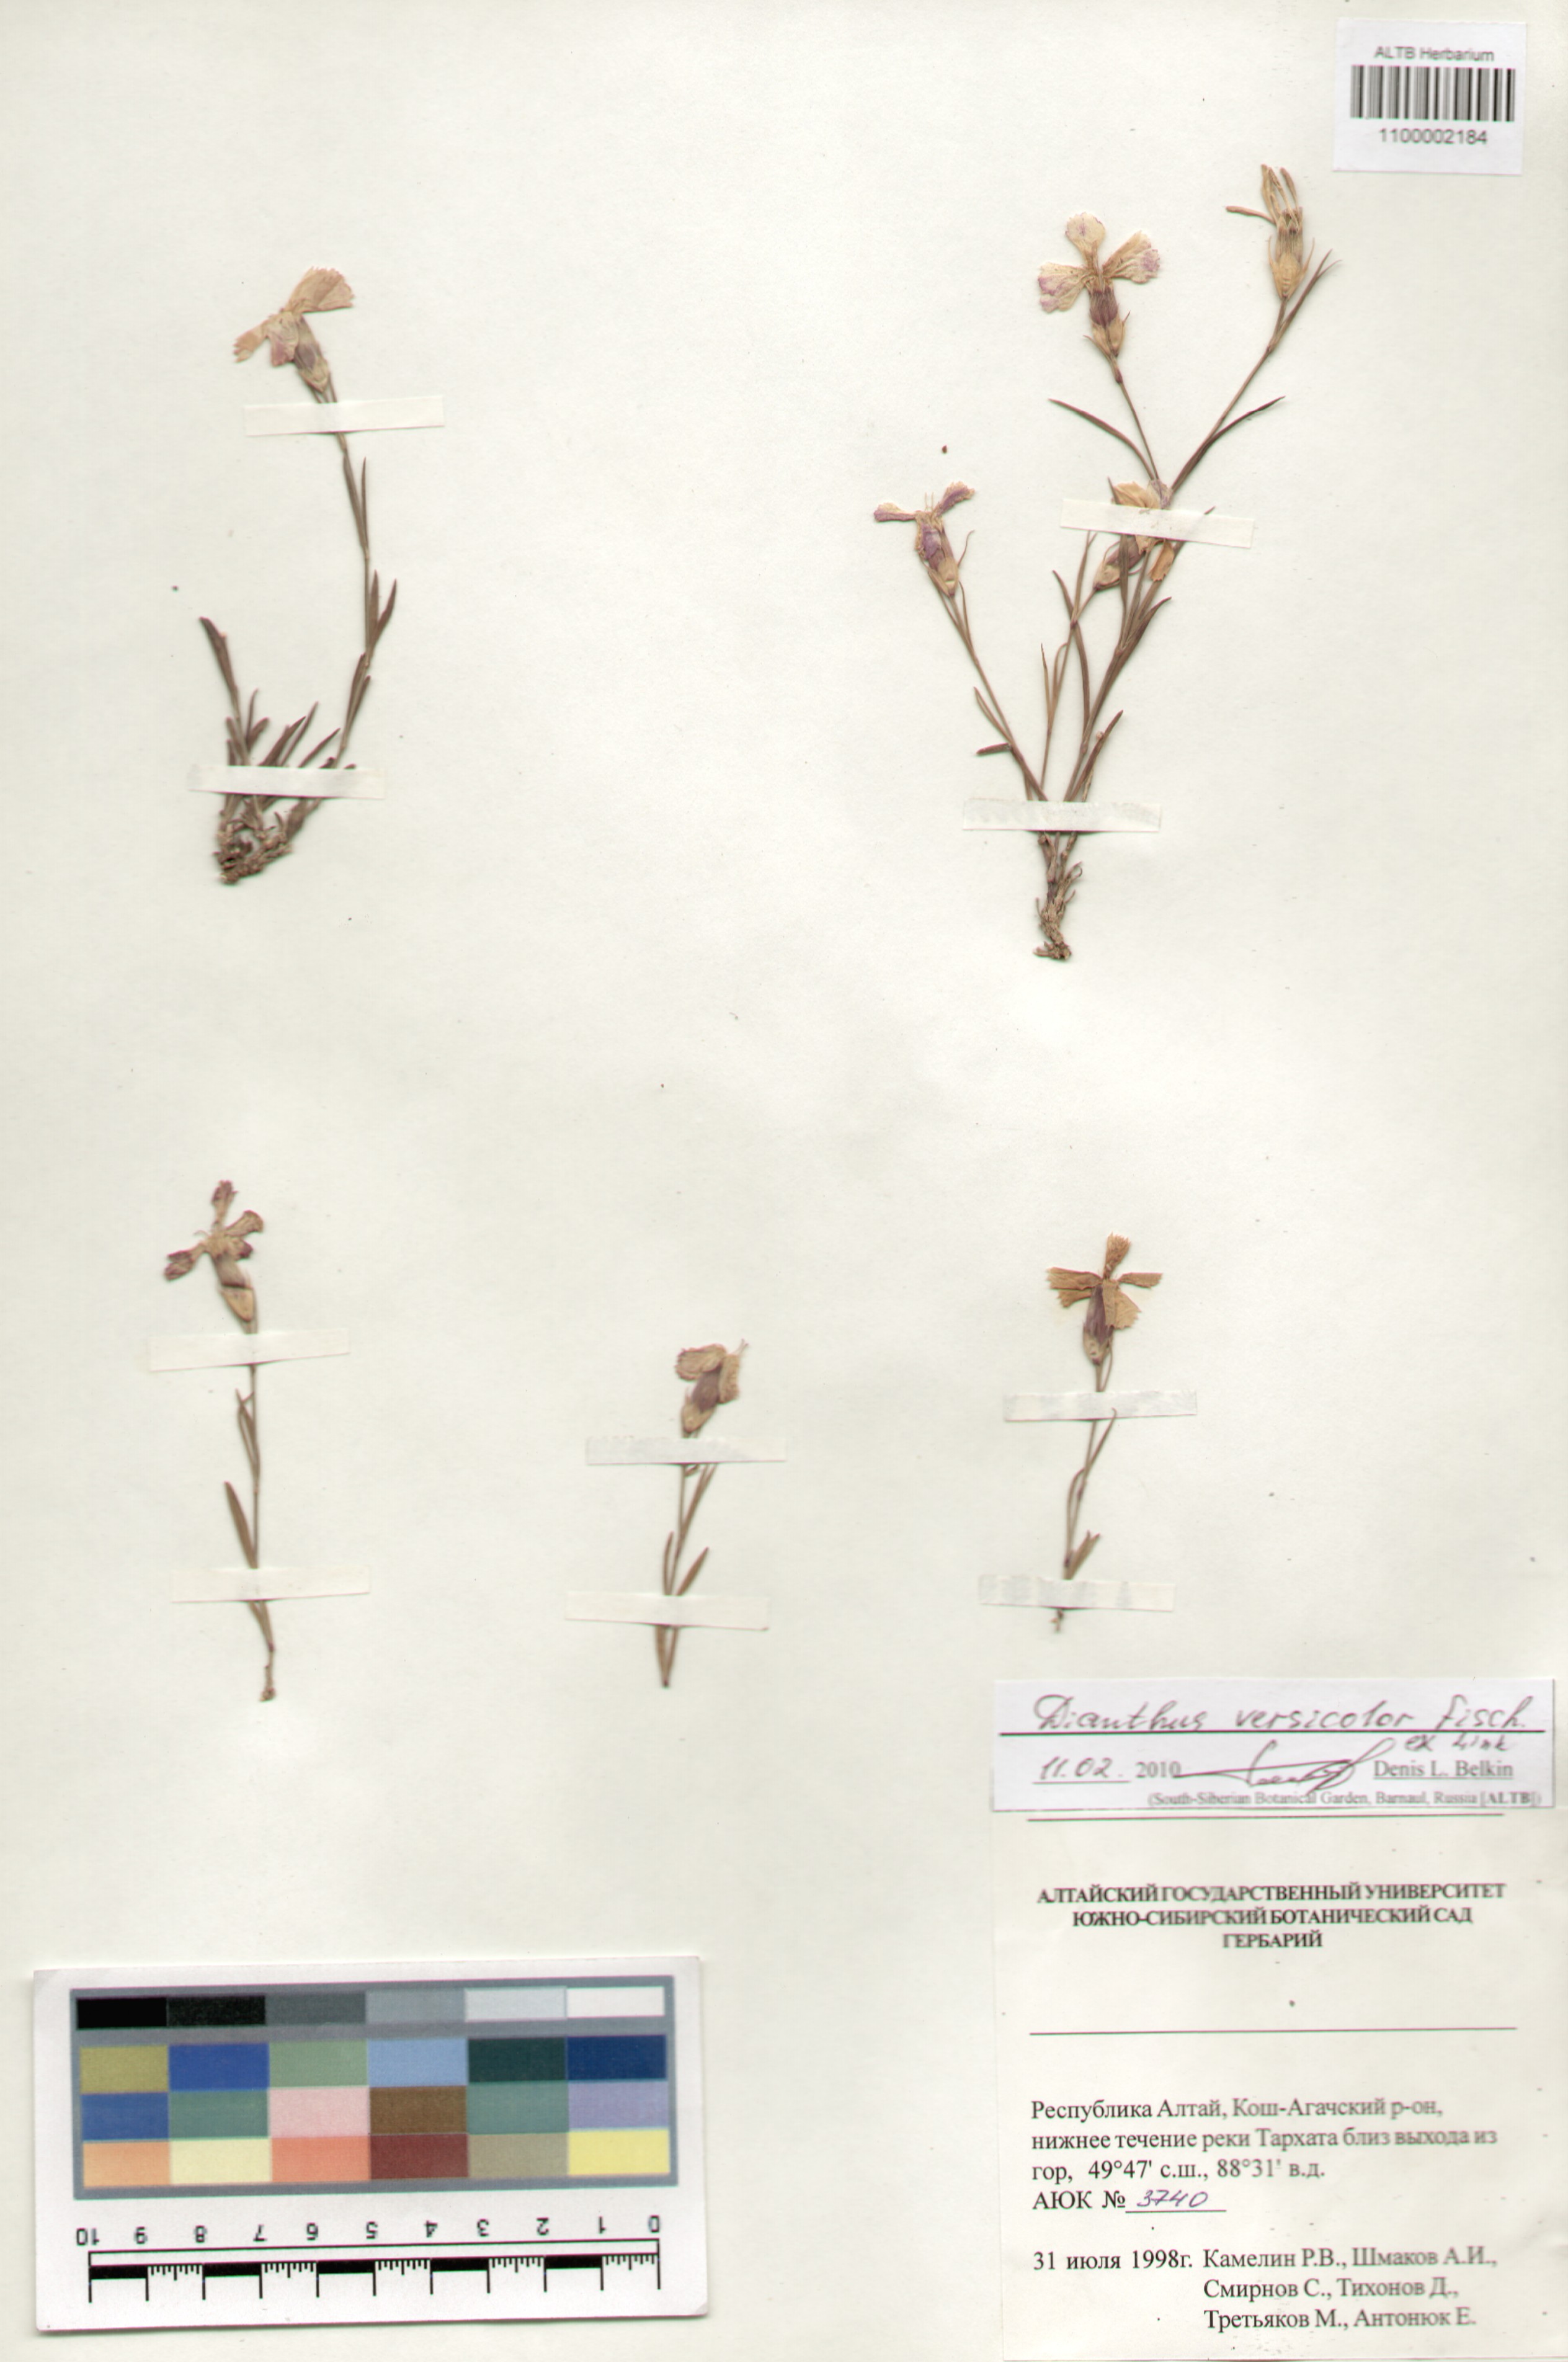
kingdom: Plantae
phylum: Tracheophyta
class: Magnoliopsida
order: Caryophyllales
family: Caryophyllaceae
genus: Dianthus
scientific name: Dianthus chinensis
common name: Rainbow pink
